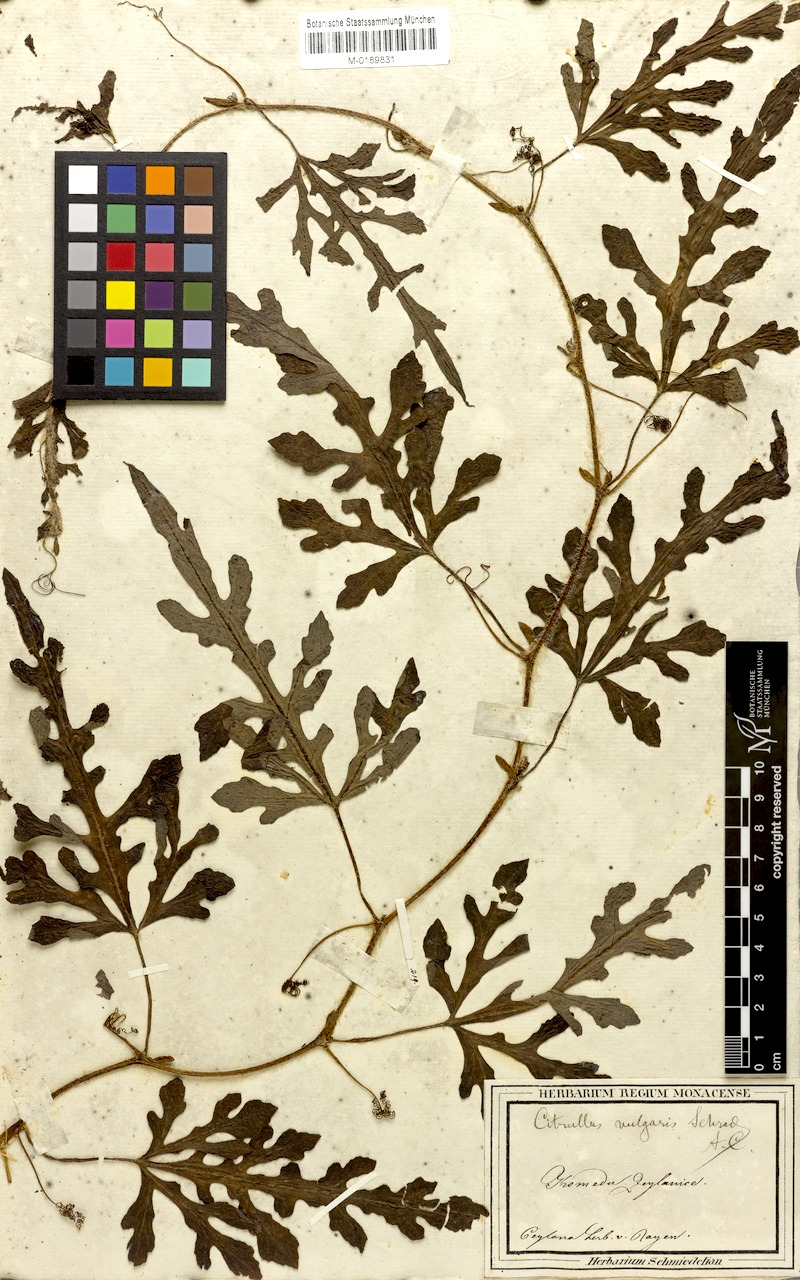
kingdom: Plantae
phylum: Tracheophyta
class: Magnoliopsida
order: Cucurbitales
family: Cucurbitaceae
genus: Citrullus
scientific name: Citrullus lanatus
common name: Watermelon
